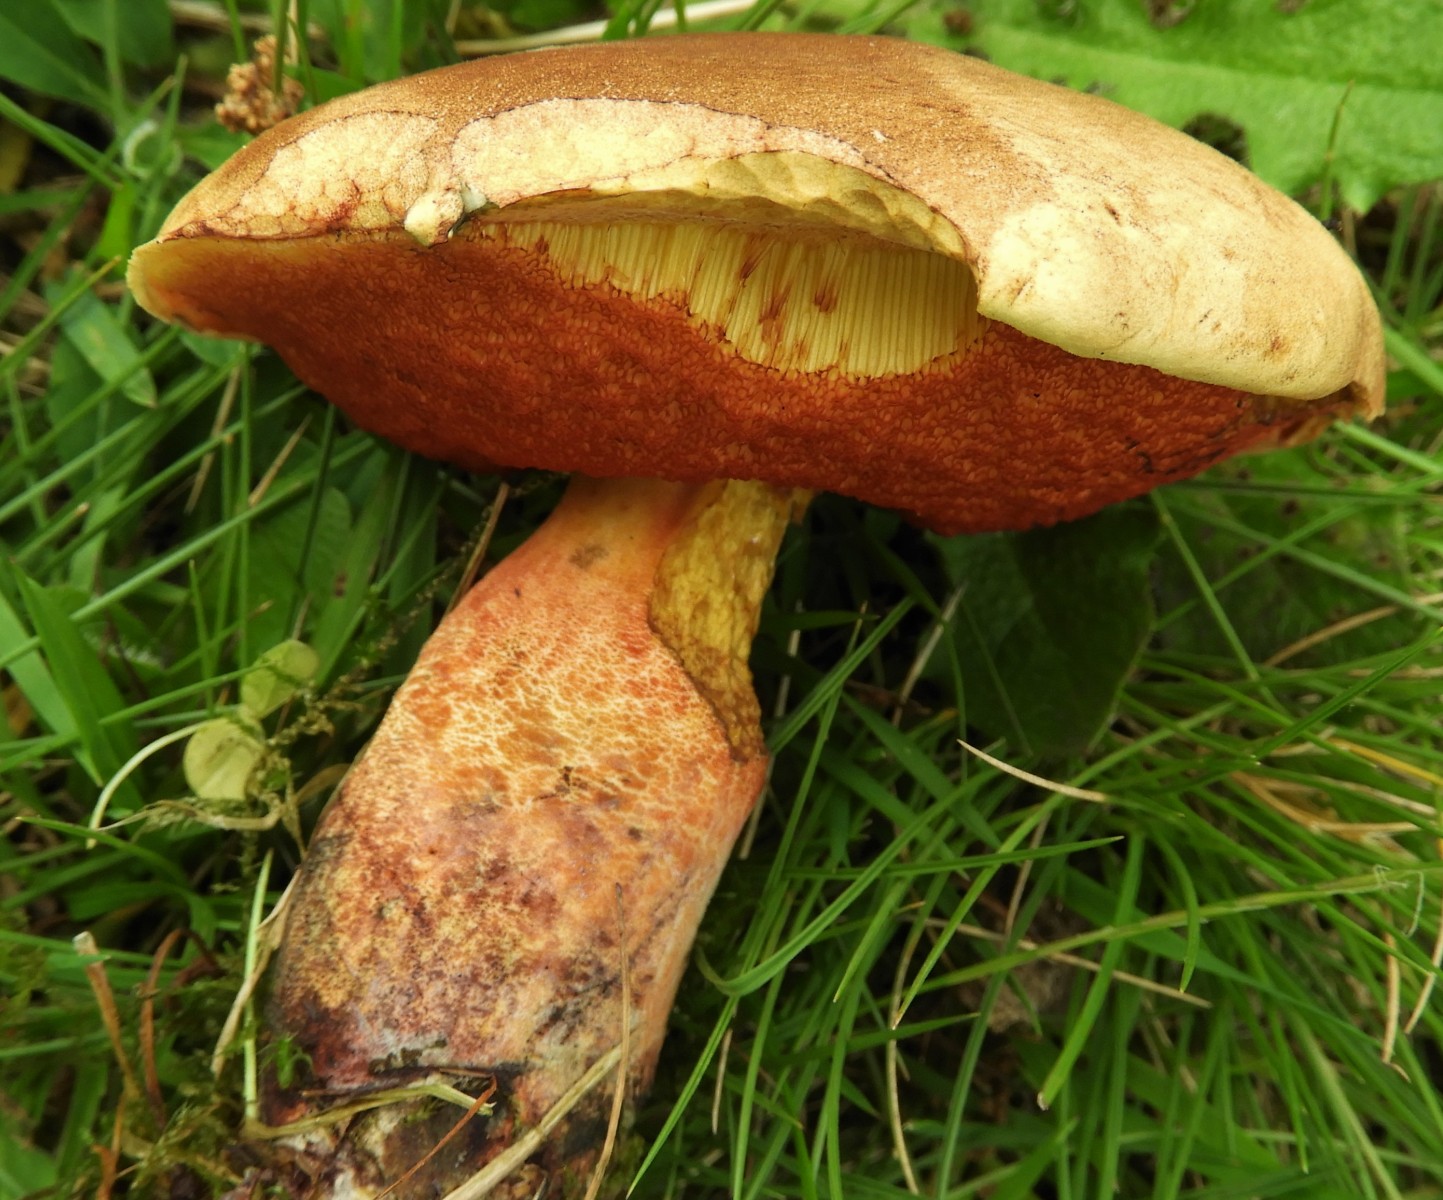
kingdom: Fungi
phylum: Basidiomycota
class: Agaricomycetes
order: Boletales
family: Boletaceae
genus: Neoboletus
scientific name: Neoboletus erythropus
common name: punktstokket indigorørhat
